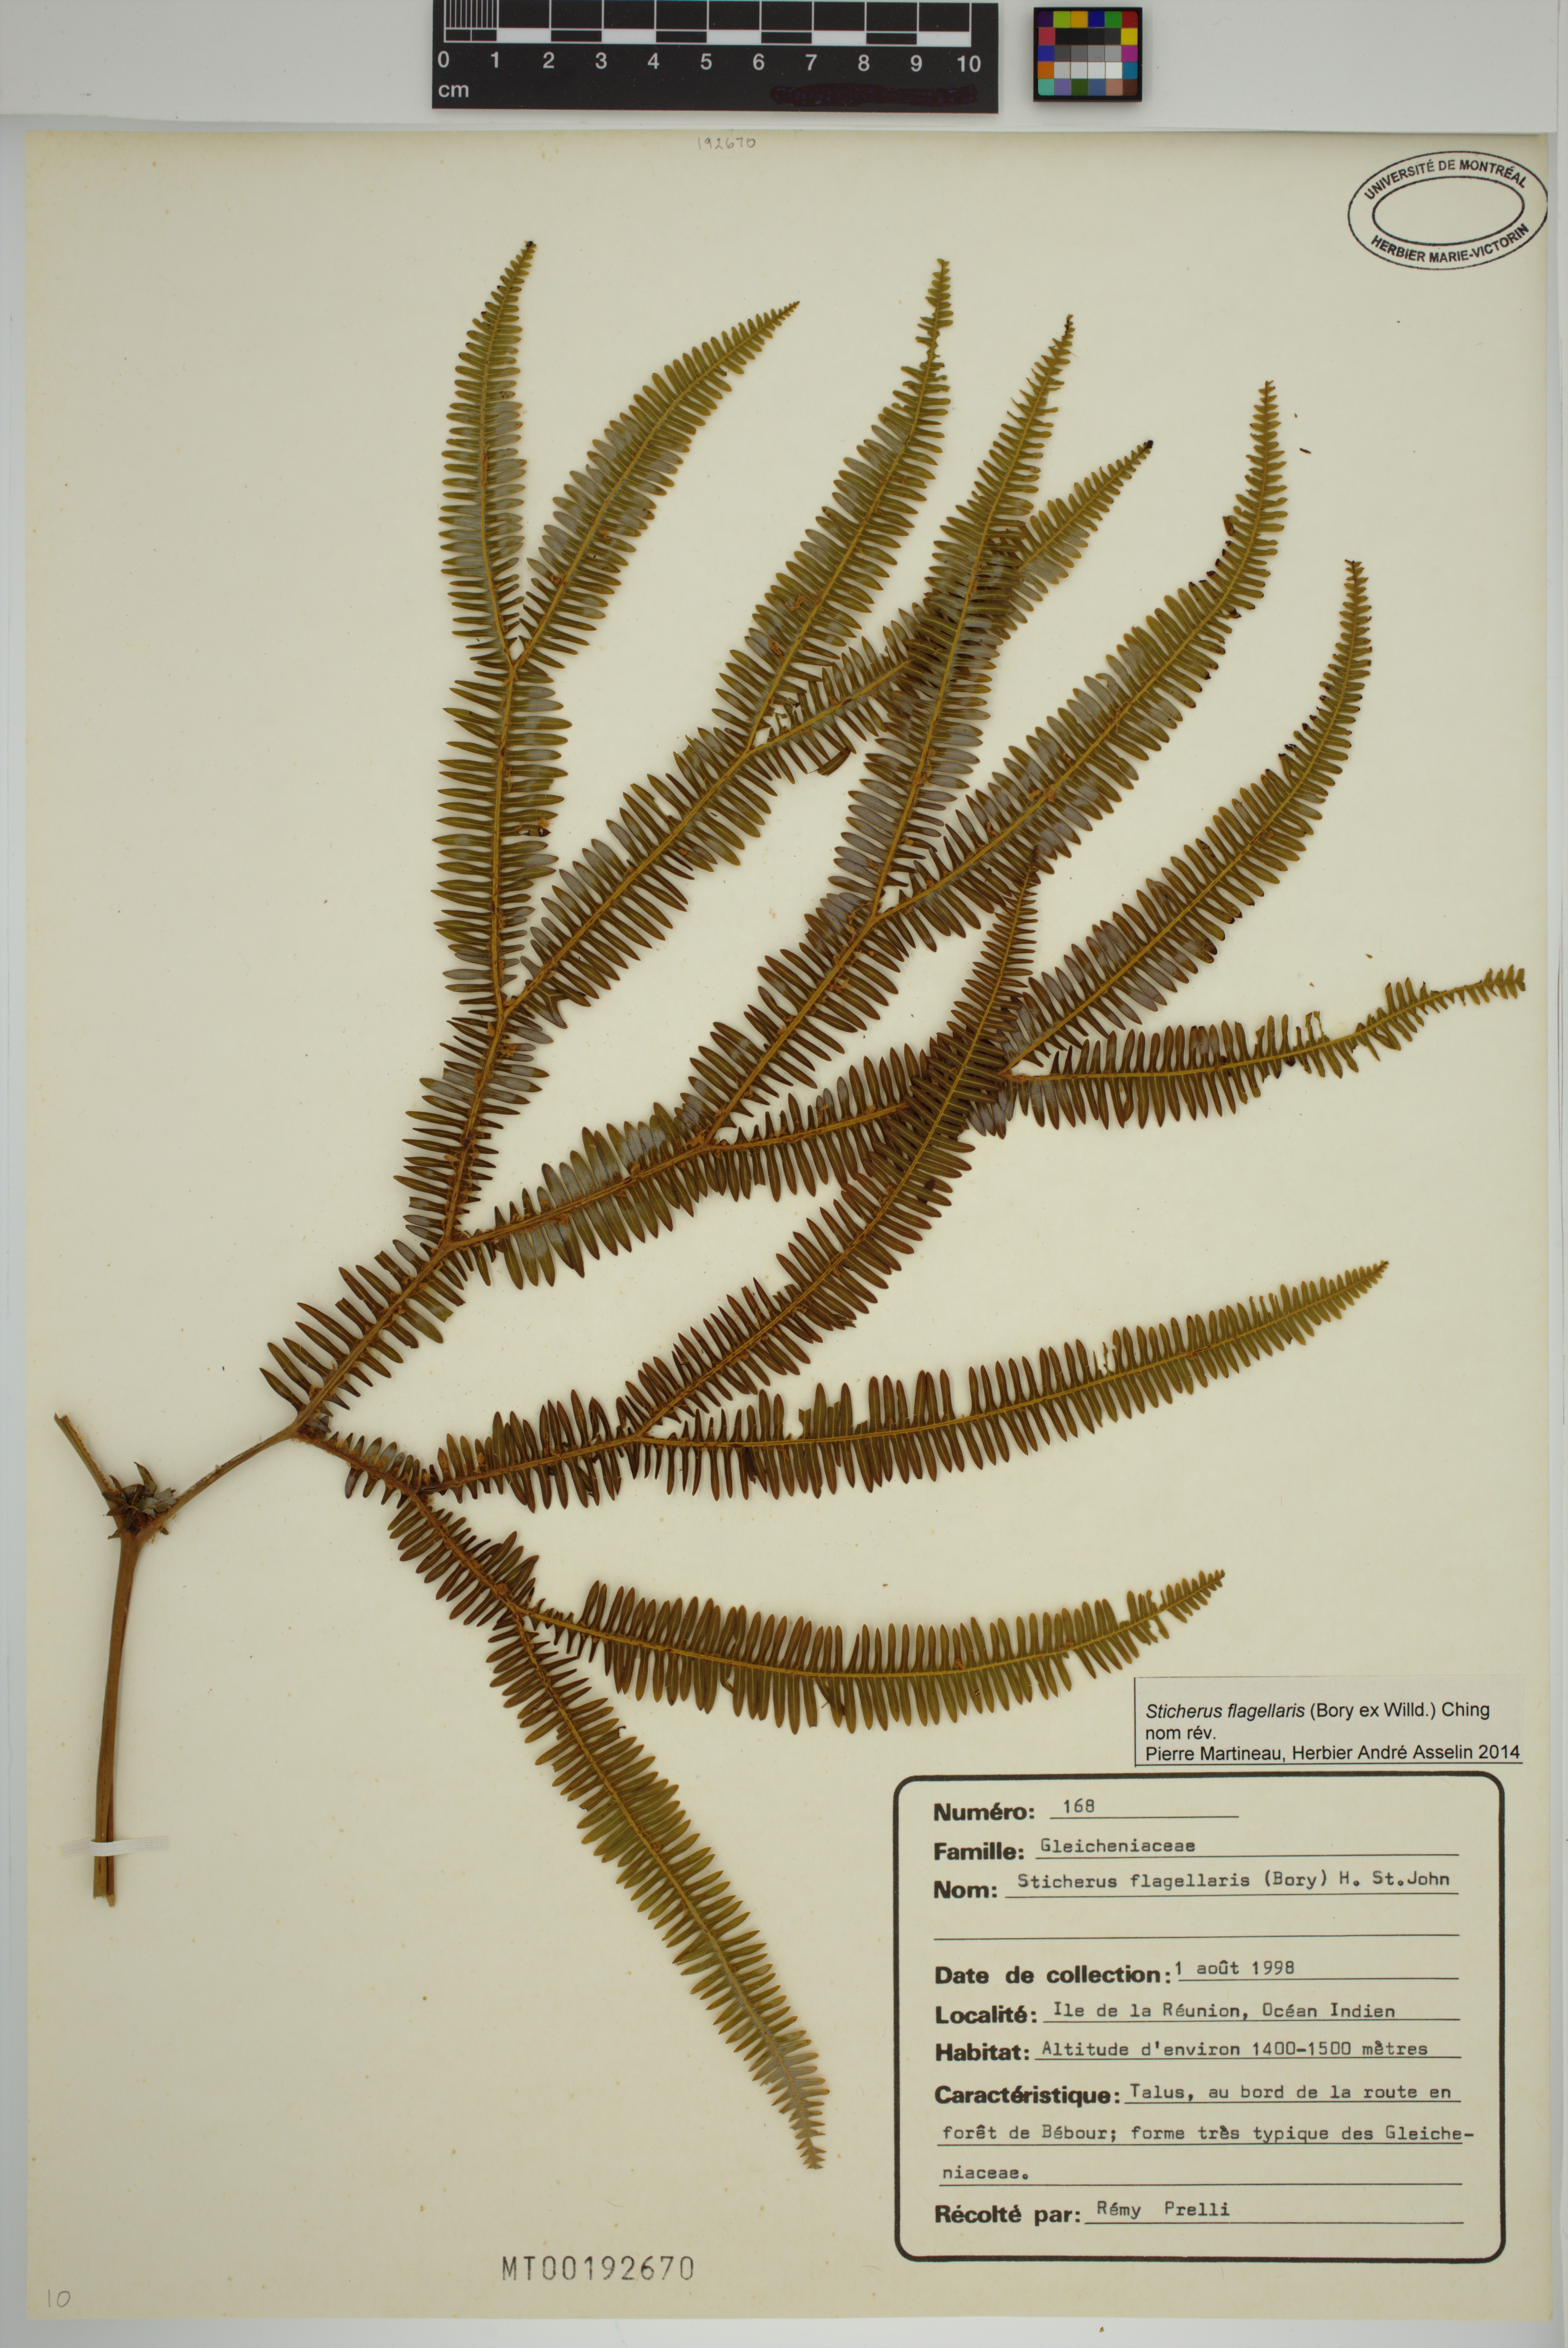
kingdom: Plantae
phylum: Tracheophyta
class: Polypodiopsida
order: Gleicheniales
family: Gleicheniaceae
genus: Sticherus
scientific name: Sticherus flagellaris
